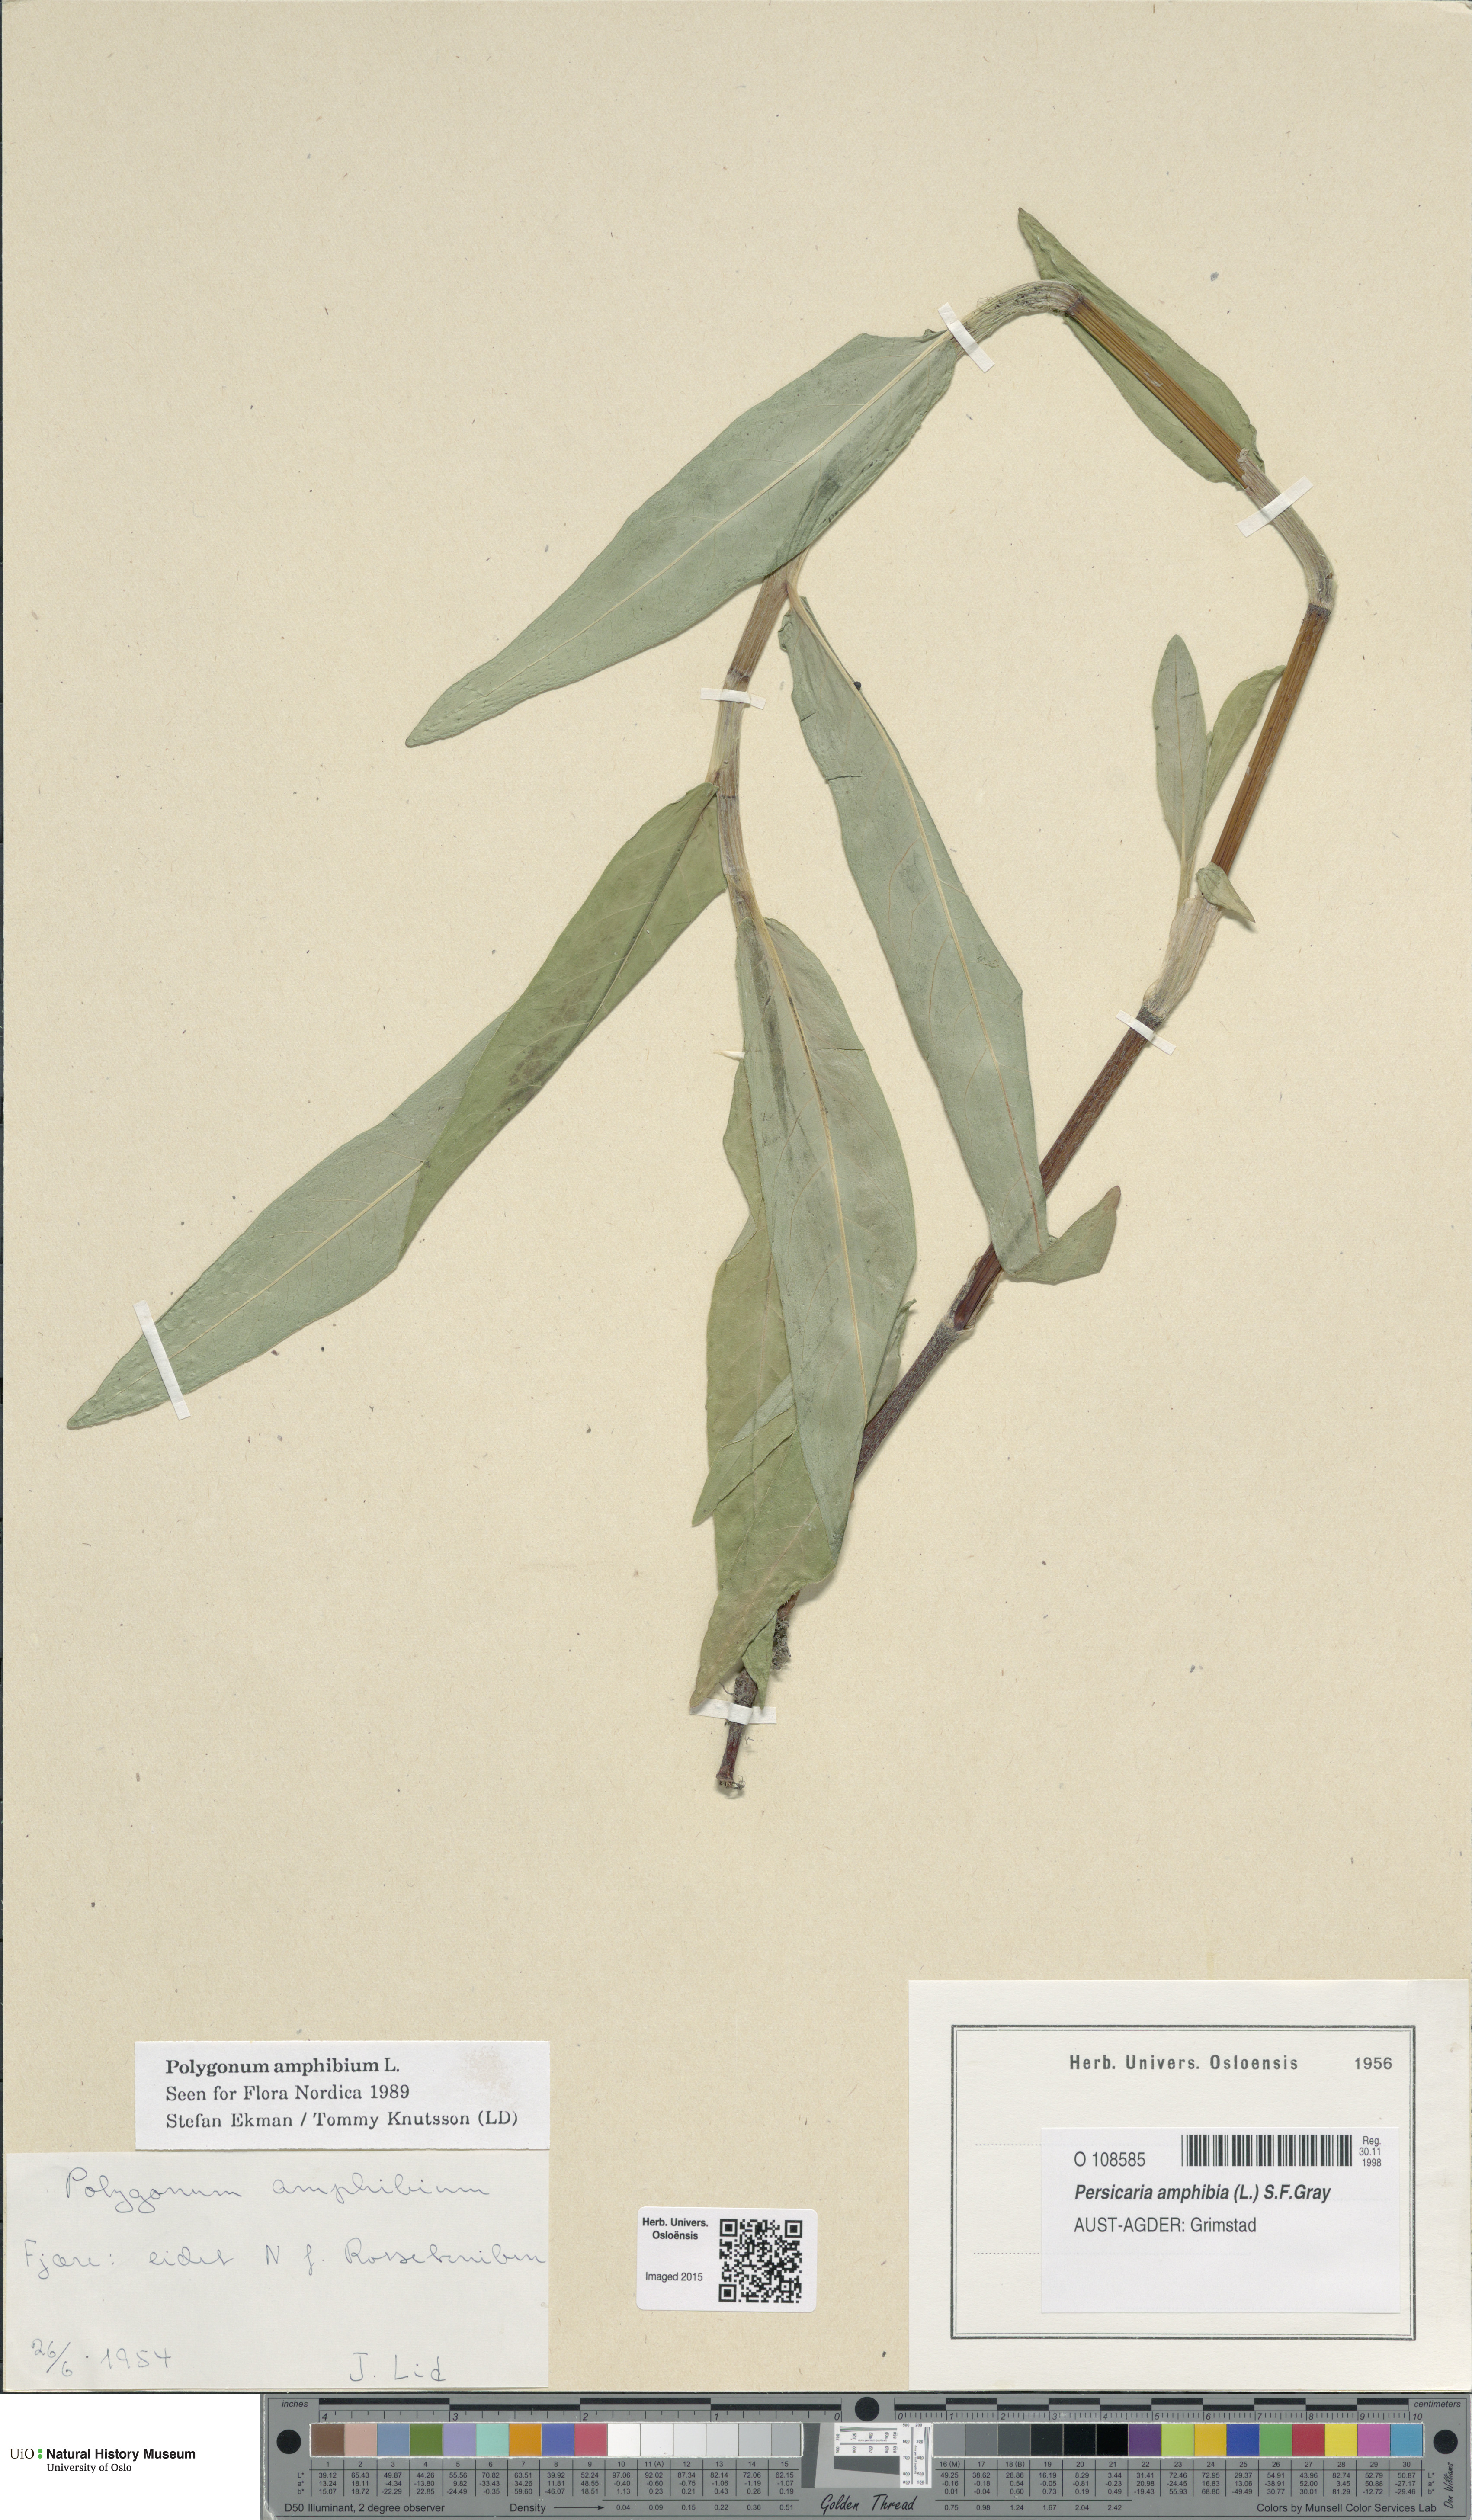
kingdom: Plantae
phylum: Tracheophyta
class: Magnoliopsida
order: Caryophyllales
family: Polygonaceae
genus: Persicaria
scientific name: Persicaria amphibia
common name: Amphibious bistort
